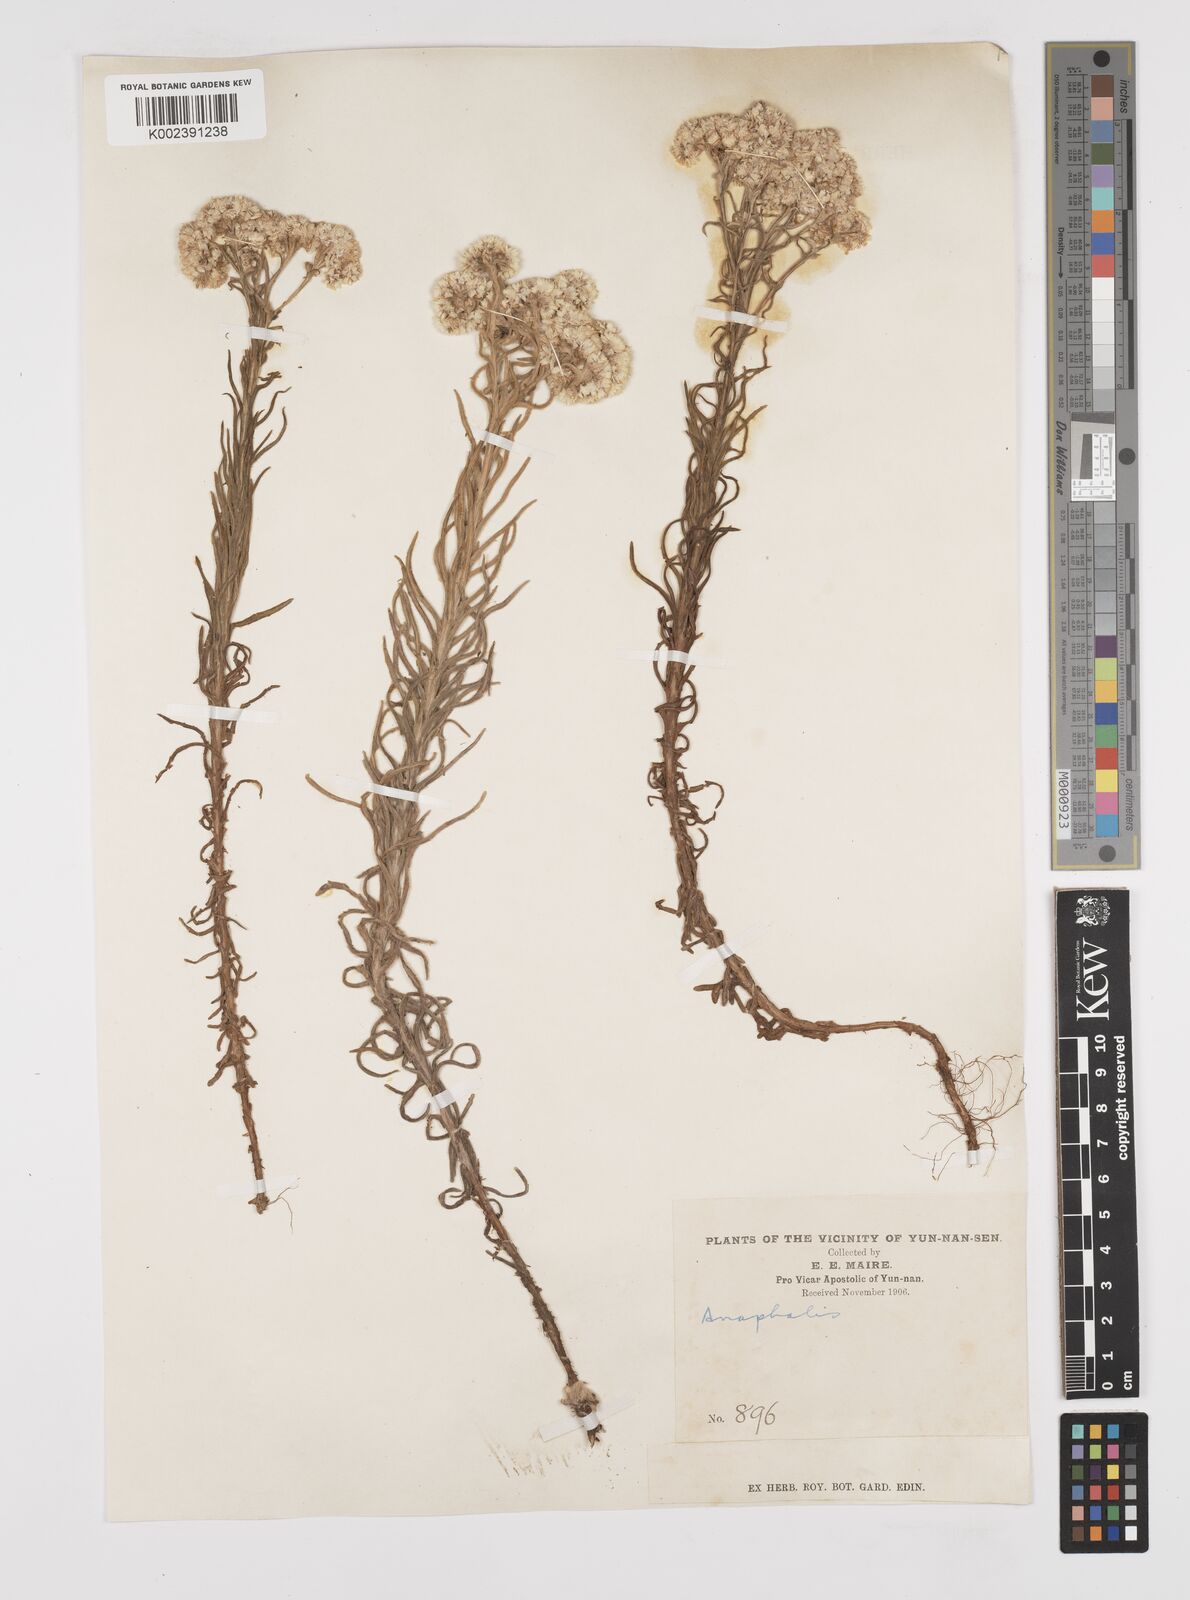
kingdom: Plantae
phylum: Tracheophyta
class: Magnoliopsida
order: Asterales
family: Asteraceae
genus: Anaphalis
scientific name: Anaphalis bicolor
